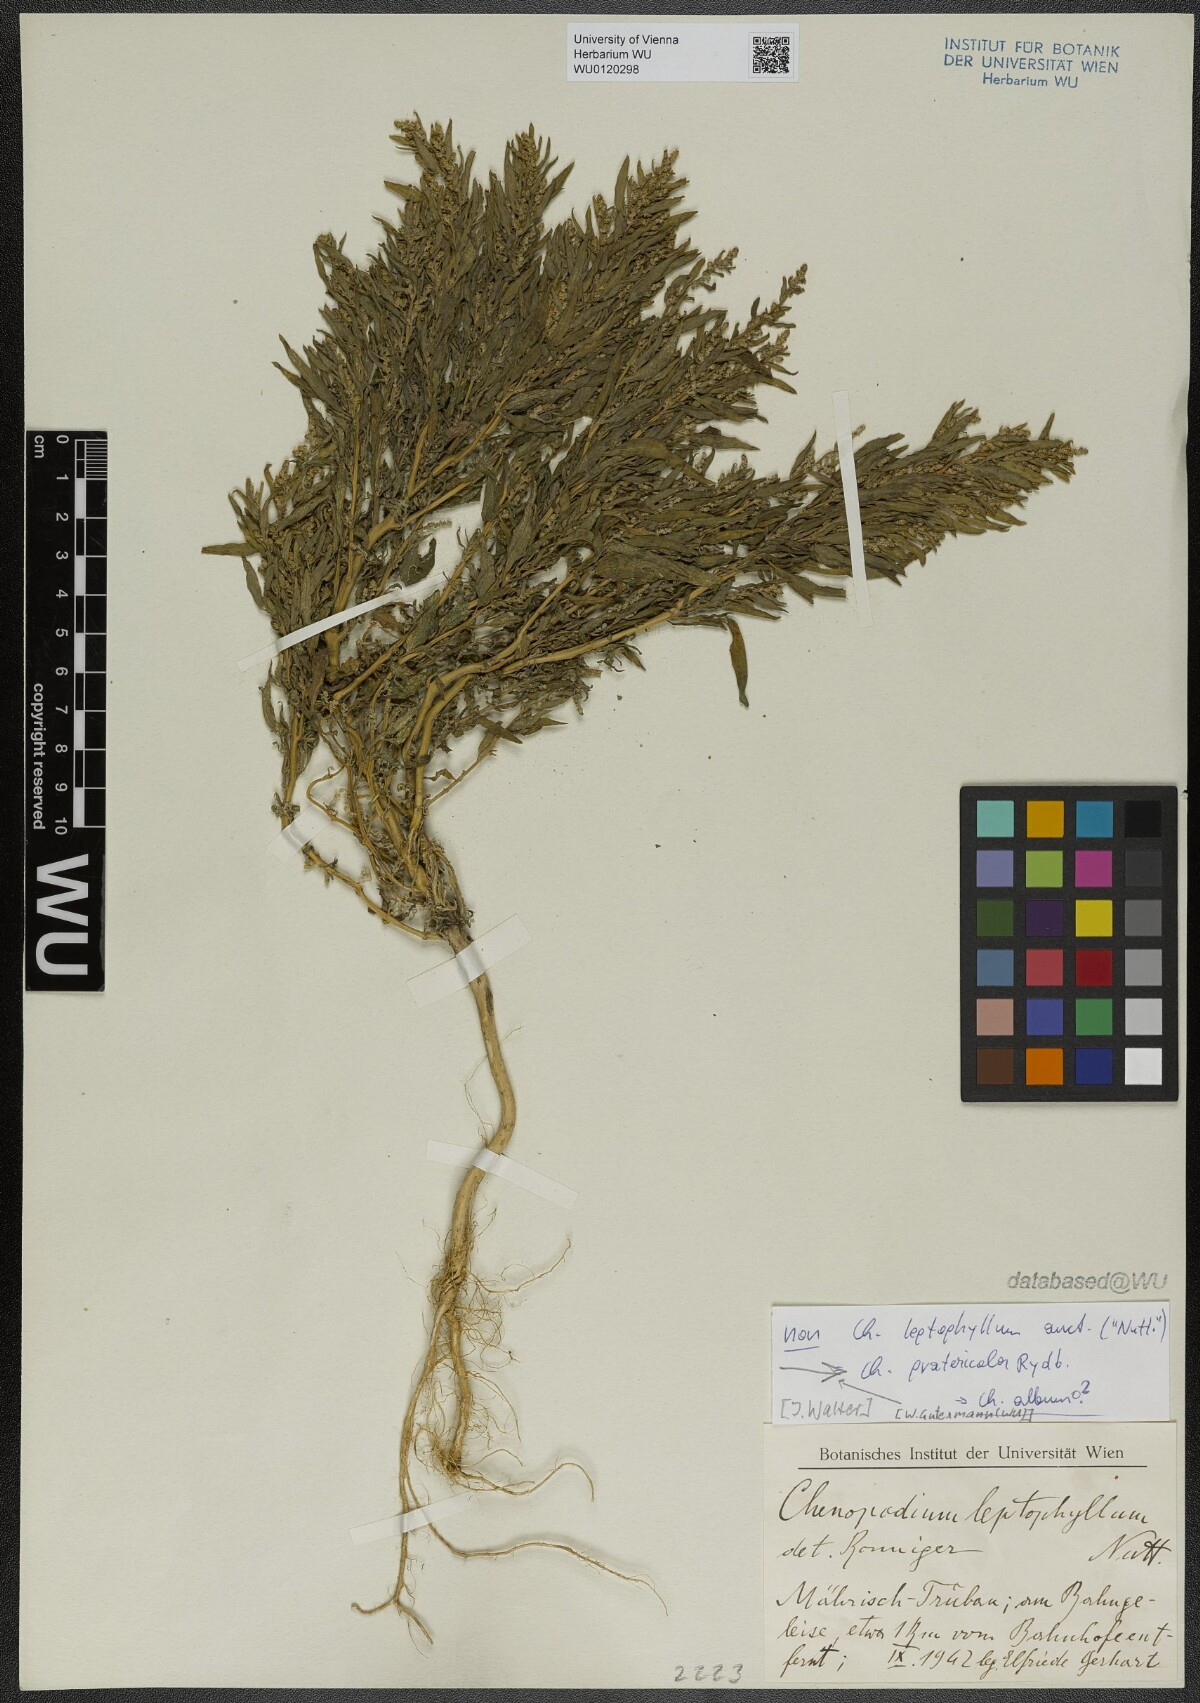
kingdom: Plantae
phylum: Tracheophyta
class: Magnoliopsida
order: Caryophyllales
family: Amaranthaceae
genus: Chenopodium
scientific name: Chenopodium pratericola
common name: Desert goosefoot
